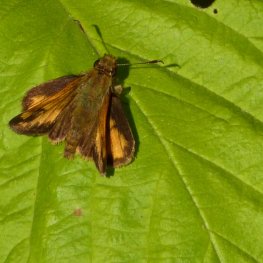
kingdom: Animalia
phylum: Arthropoda
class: Insecta
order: Lepidoptera
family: Hesperiidae
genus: Lon
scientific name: Lon hobomok
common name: Hobomok Skipper
